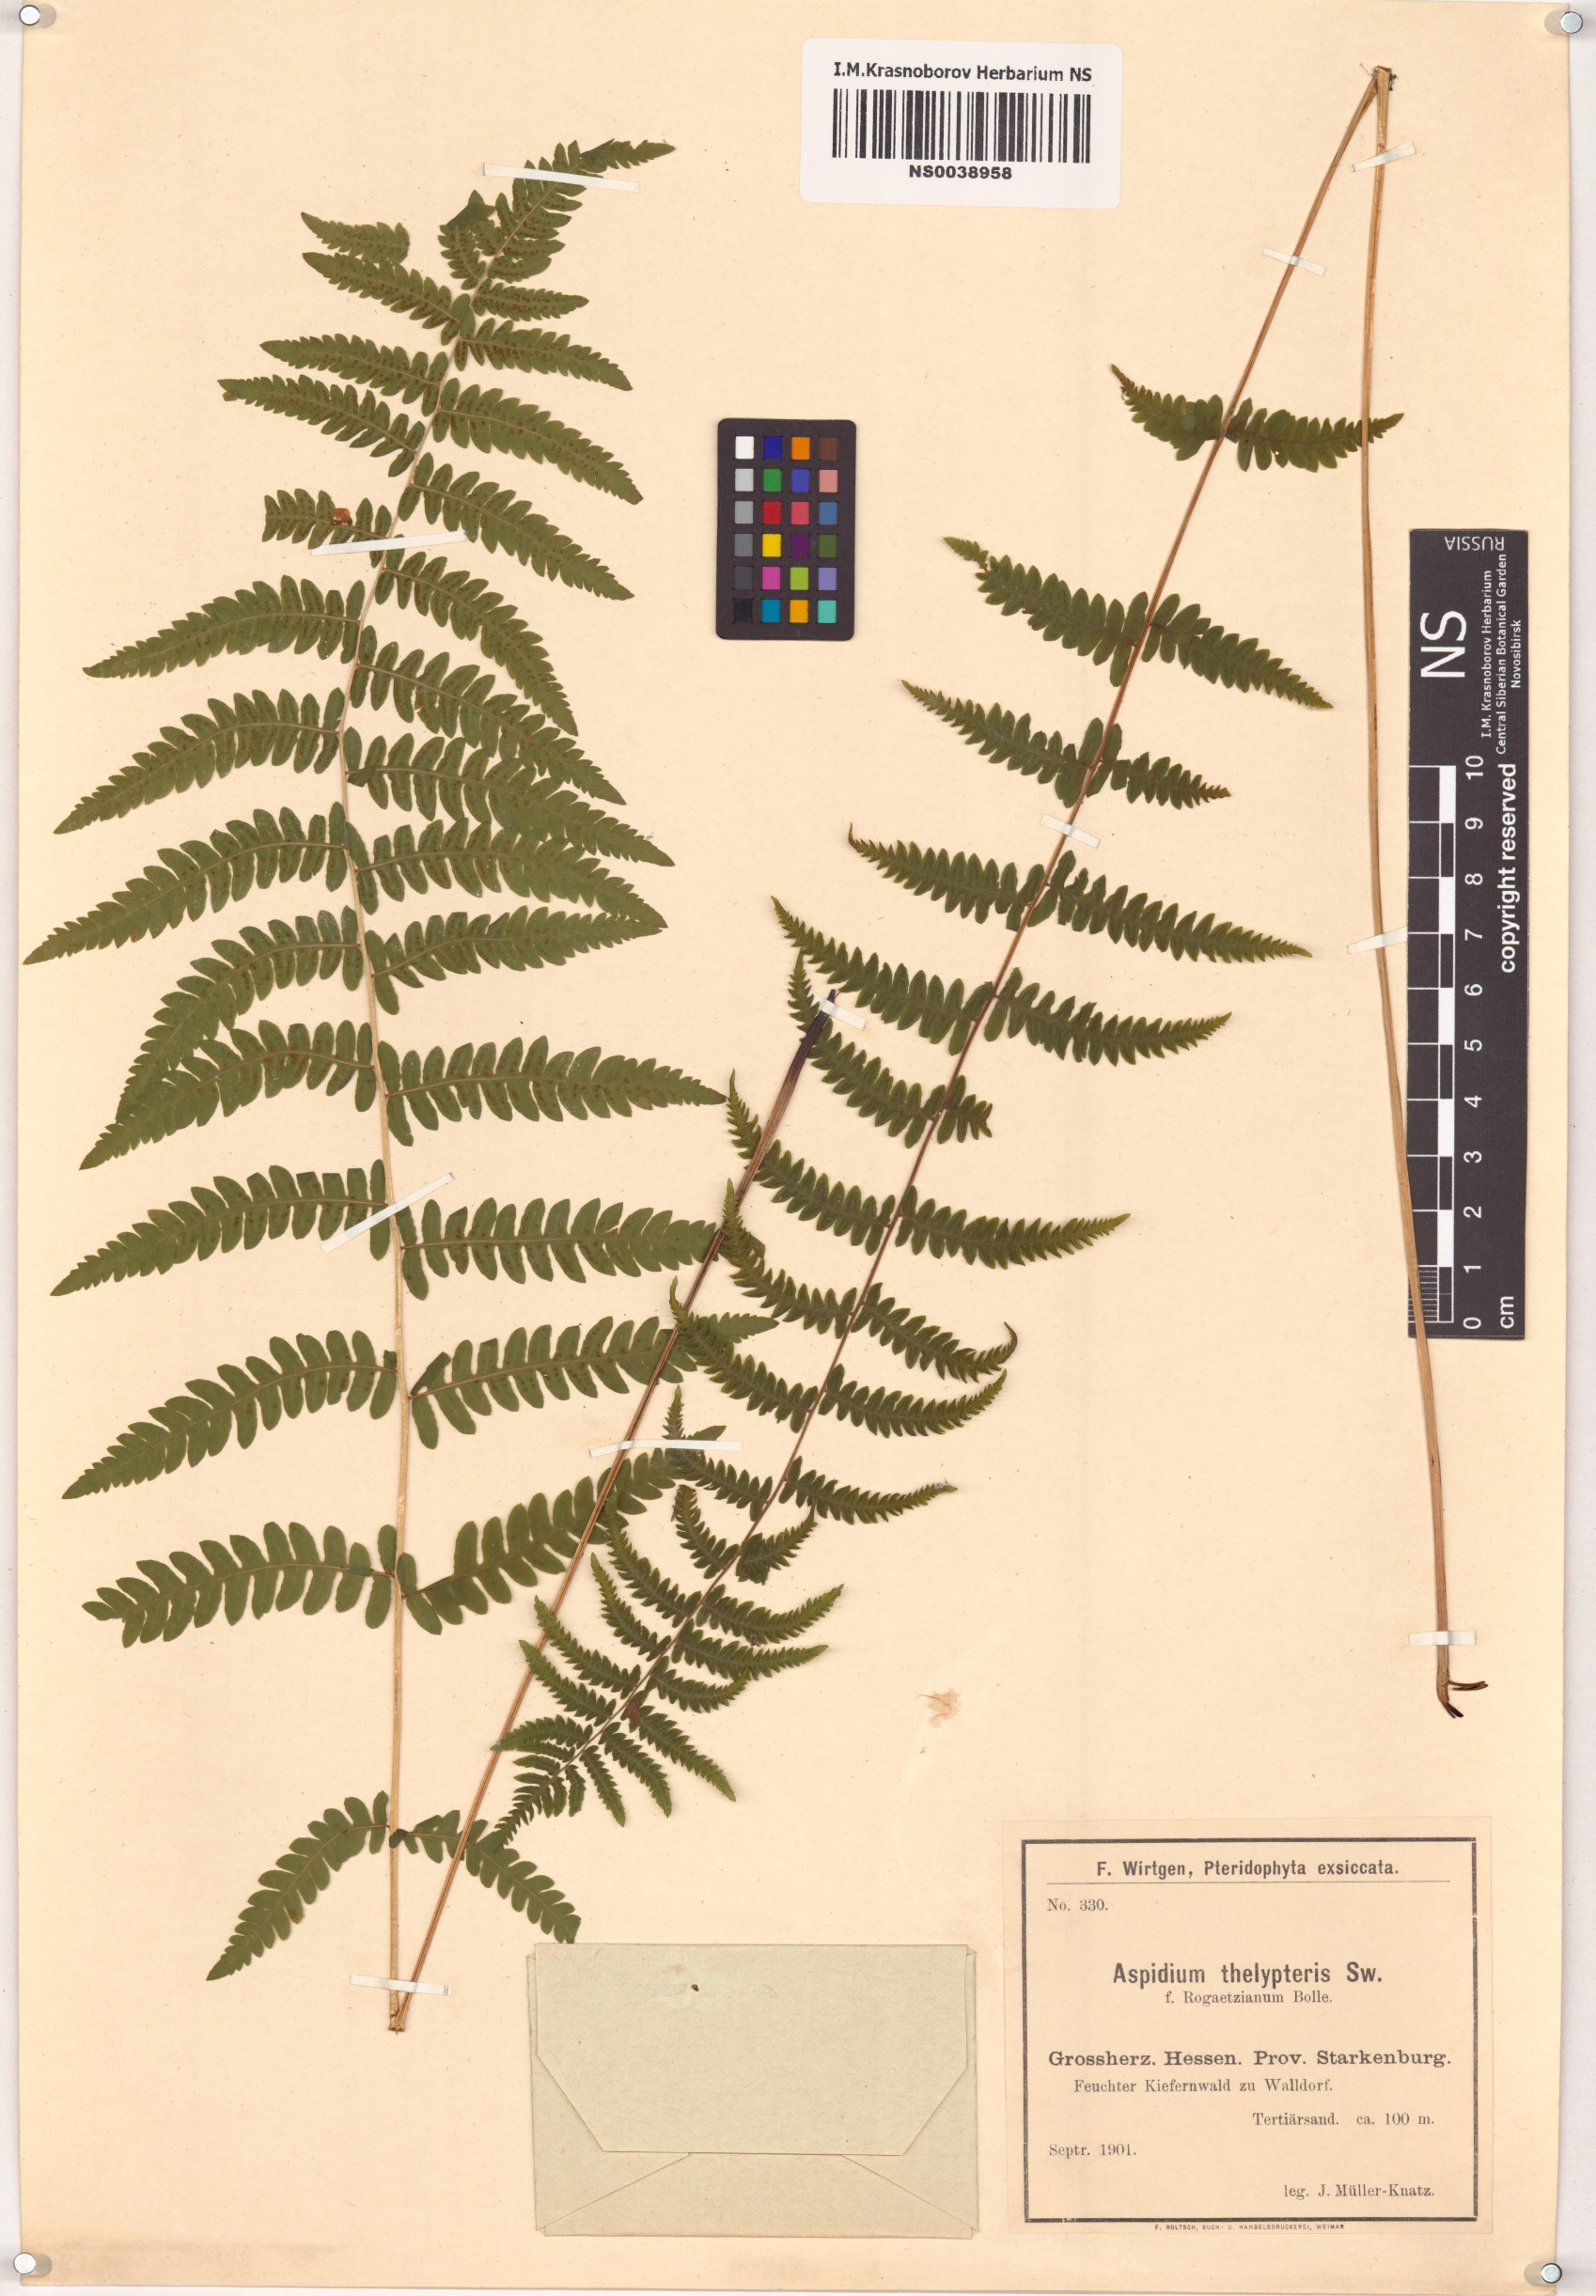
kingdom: Plantae
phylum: Tracheophyta
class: Polypodiopsida
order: Polypodiales
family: Thelypteridaceae
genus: Thelypteris
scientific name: Thelypteris palustris
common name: Marsh fern
